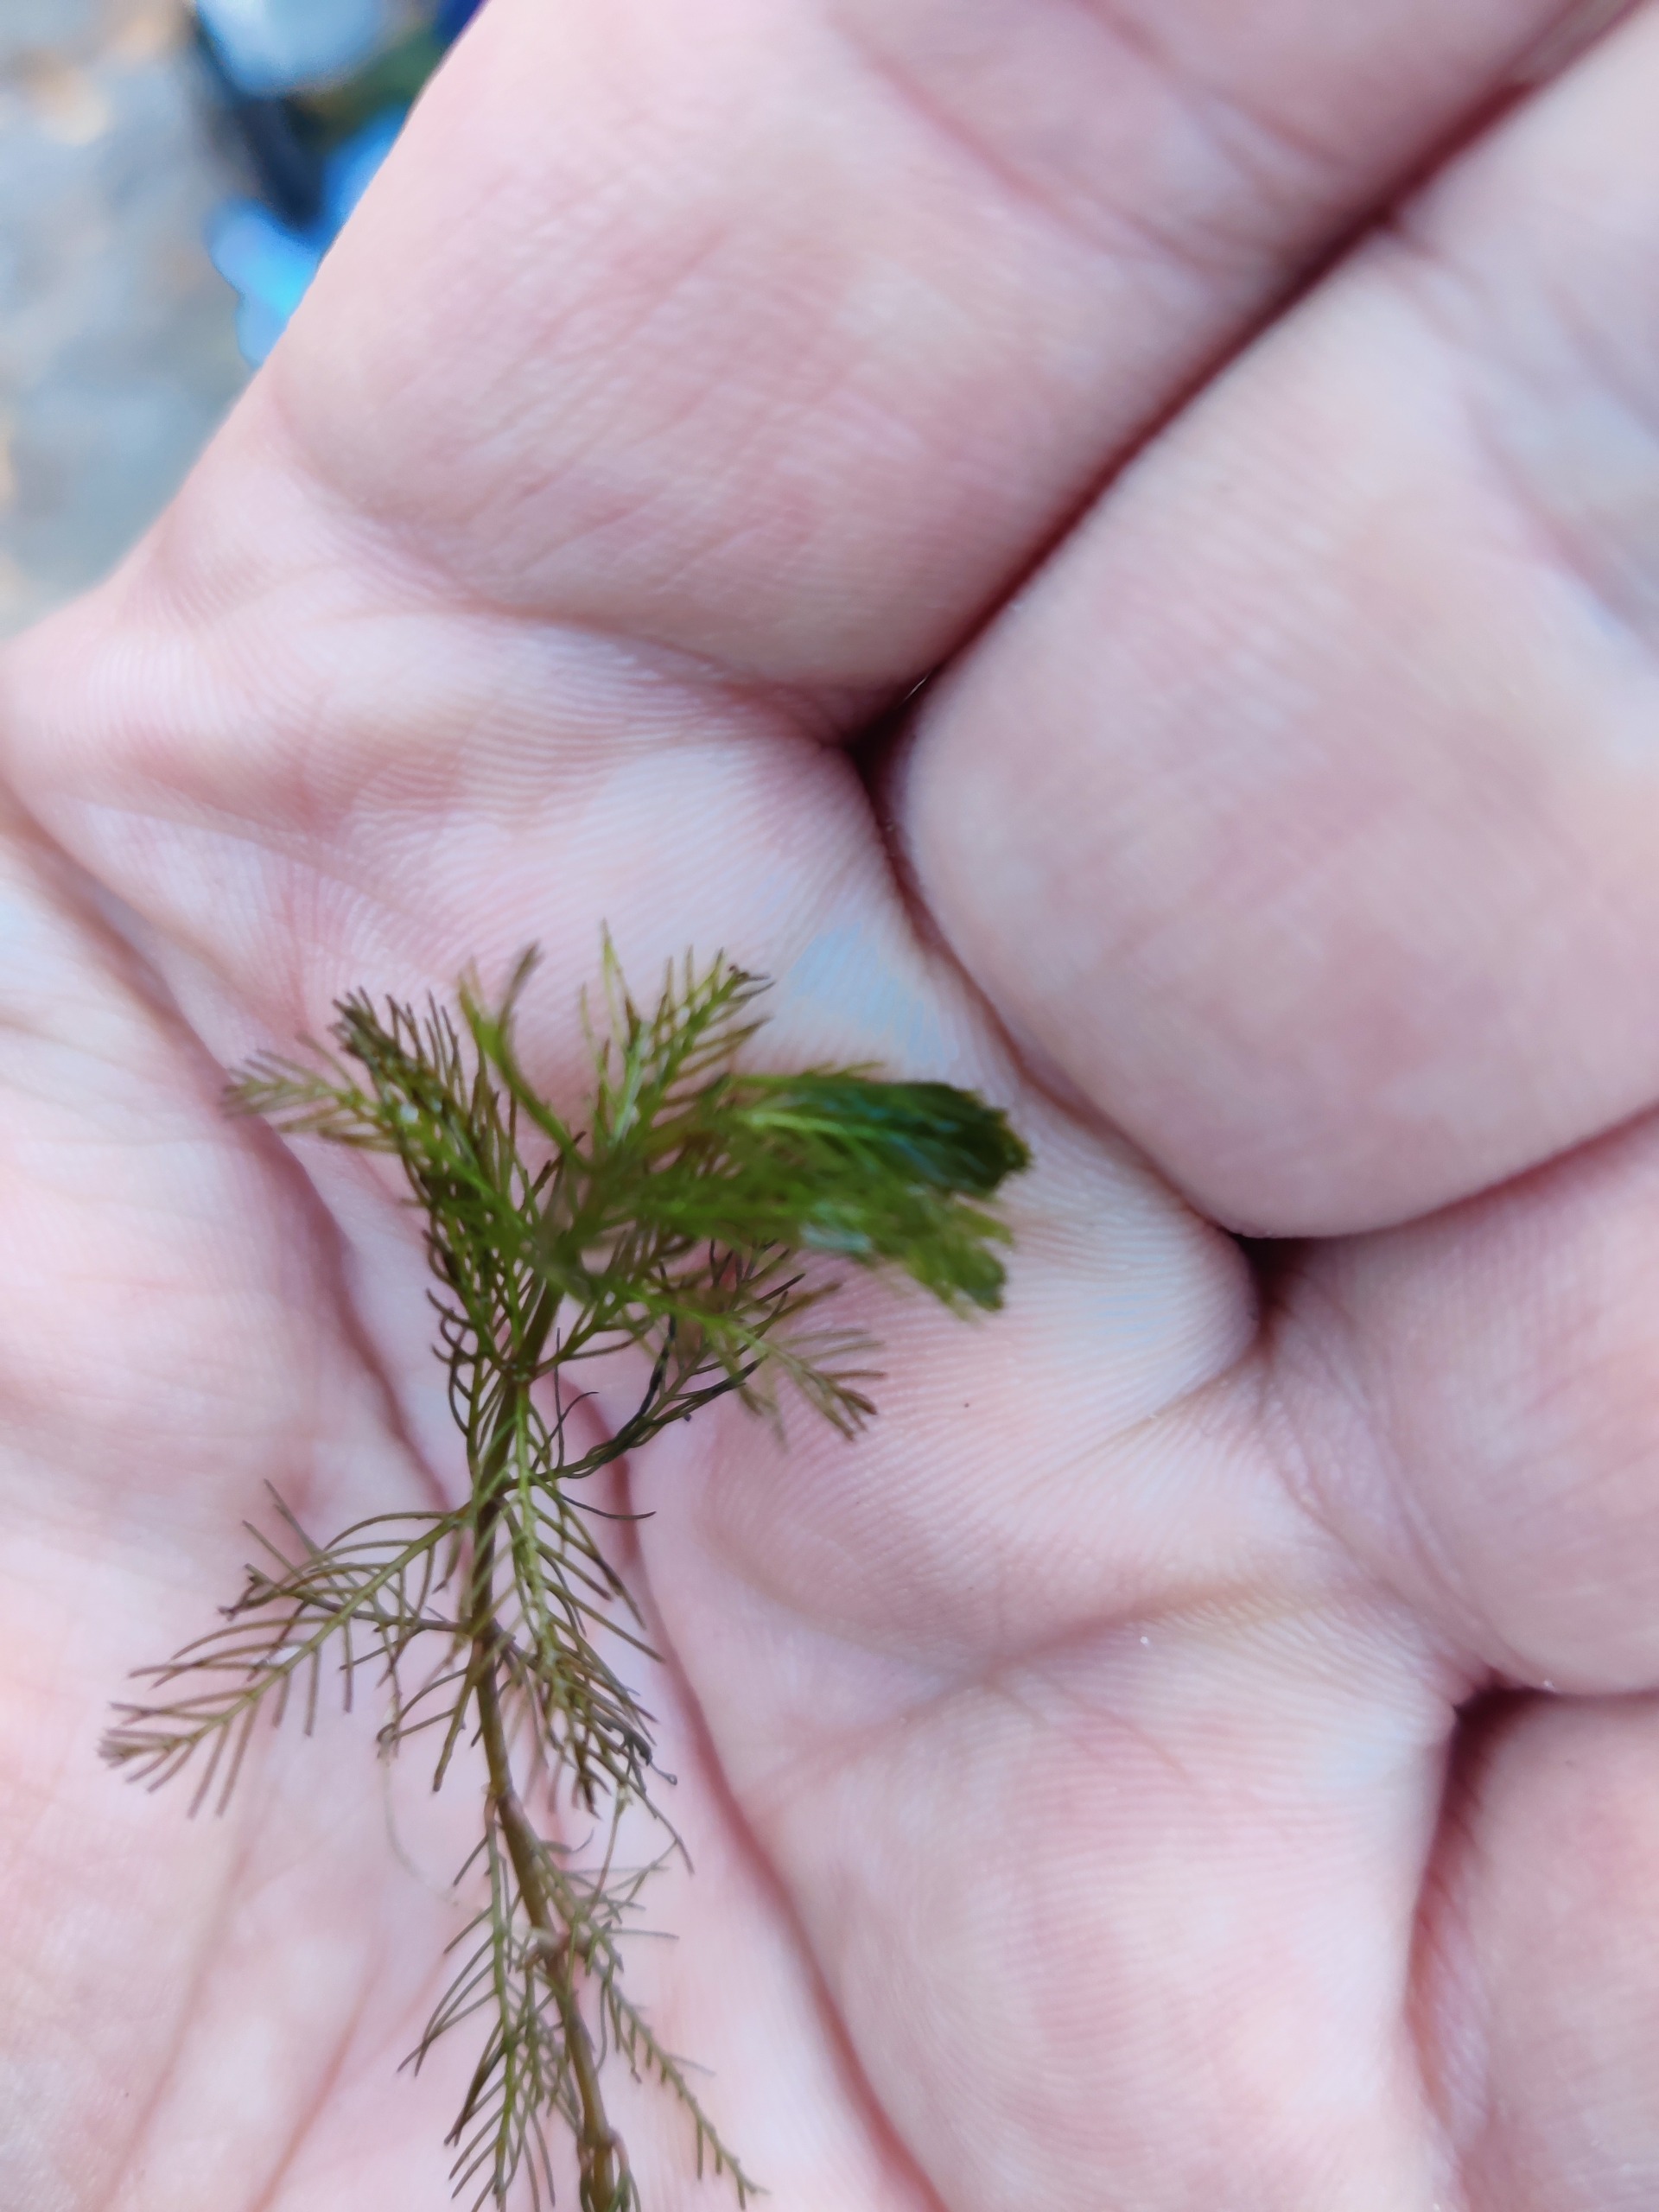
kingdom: Plantae
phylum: Tracheophyta
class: Magnoliopsida
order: Saxifragales
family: Haloragaceae
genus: Myriophyllum
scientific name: Myriophyllum spicatum
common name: Aks-tusindblad
